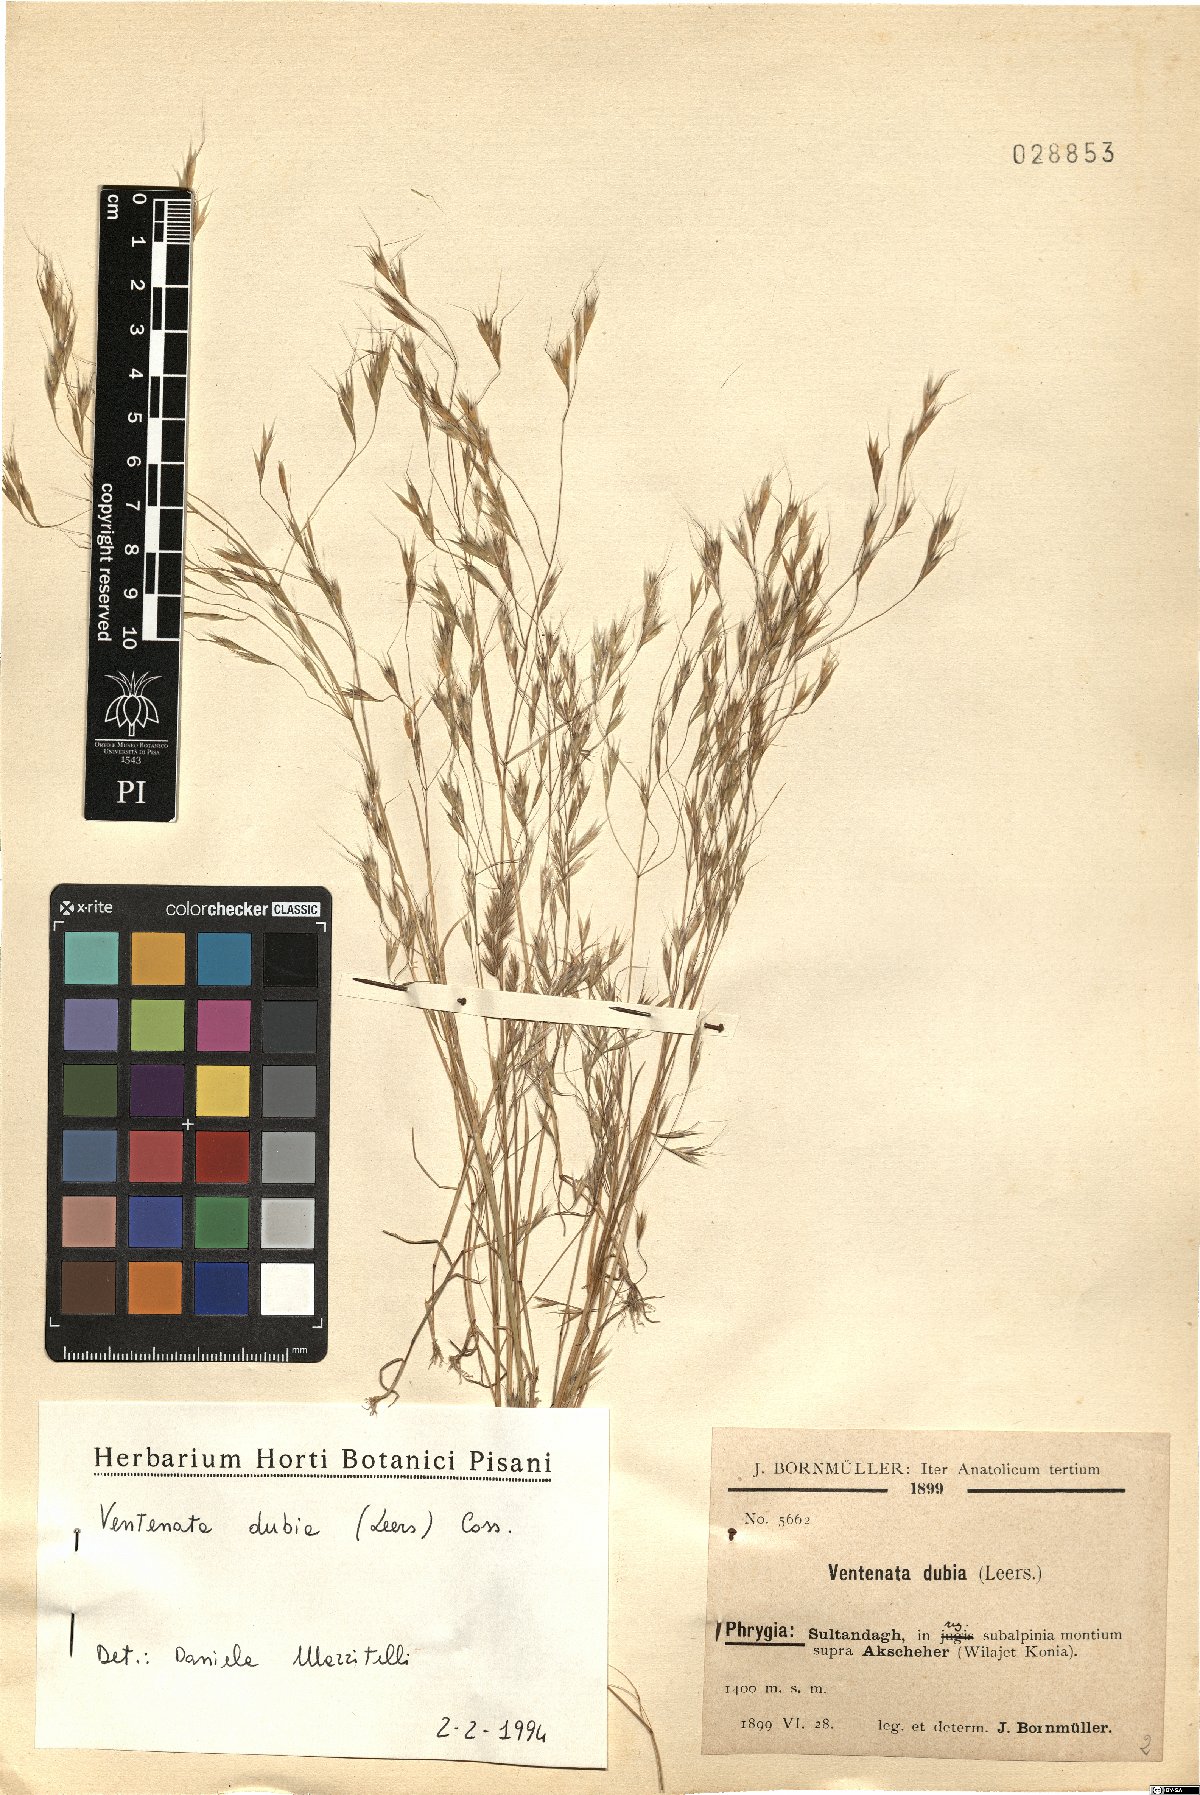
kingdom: Plantae
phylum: Tracheophyta
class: Liliopsida
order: Poales
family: Poaceae
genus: Ventenata
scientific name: Ventenata dubia
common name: North africa grass
